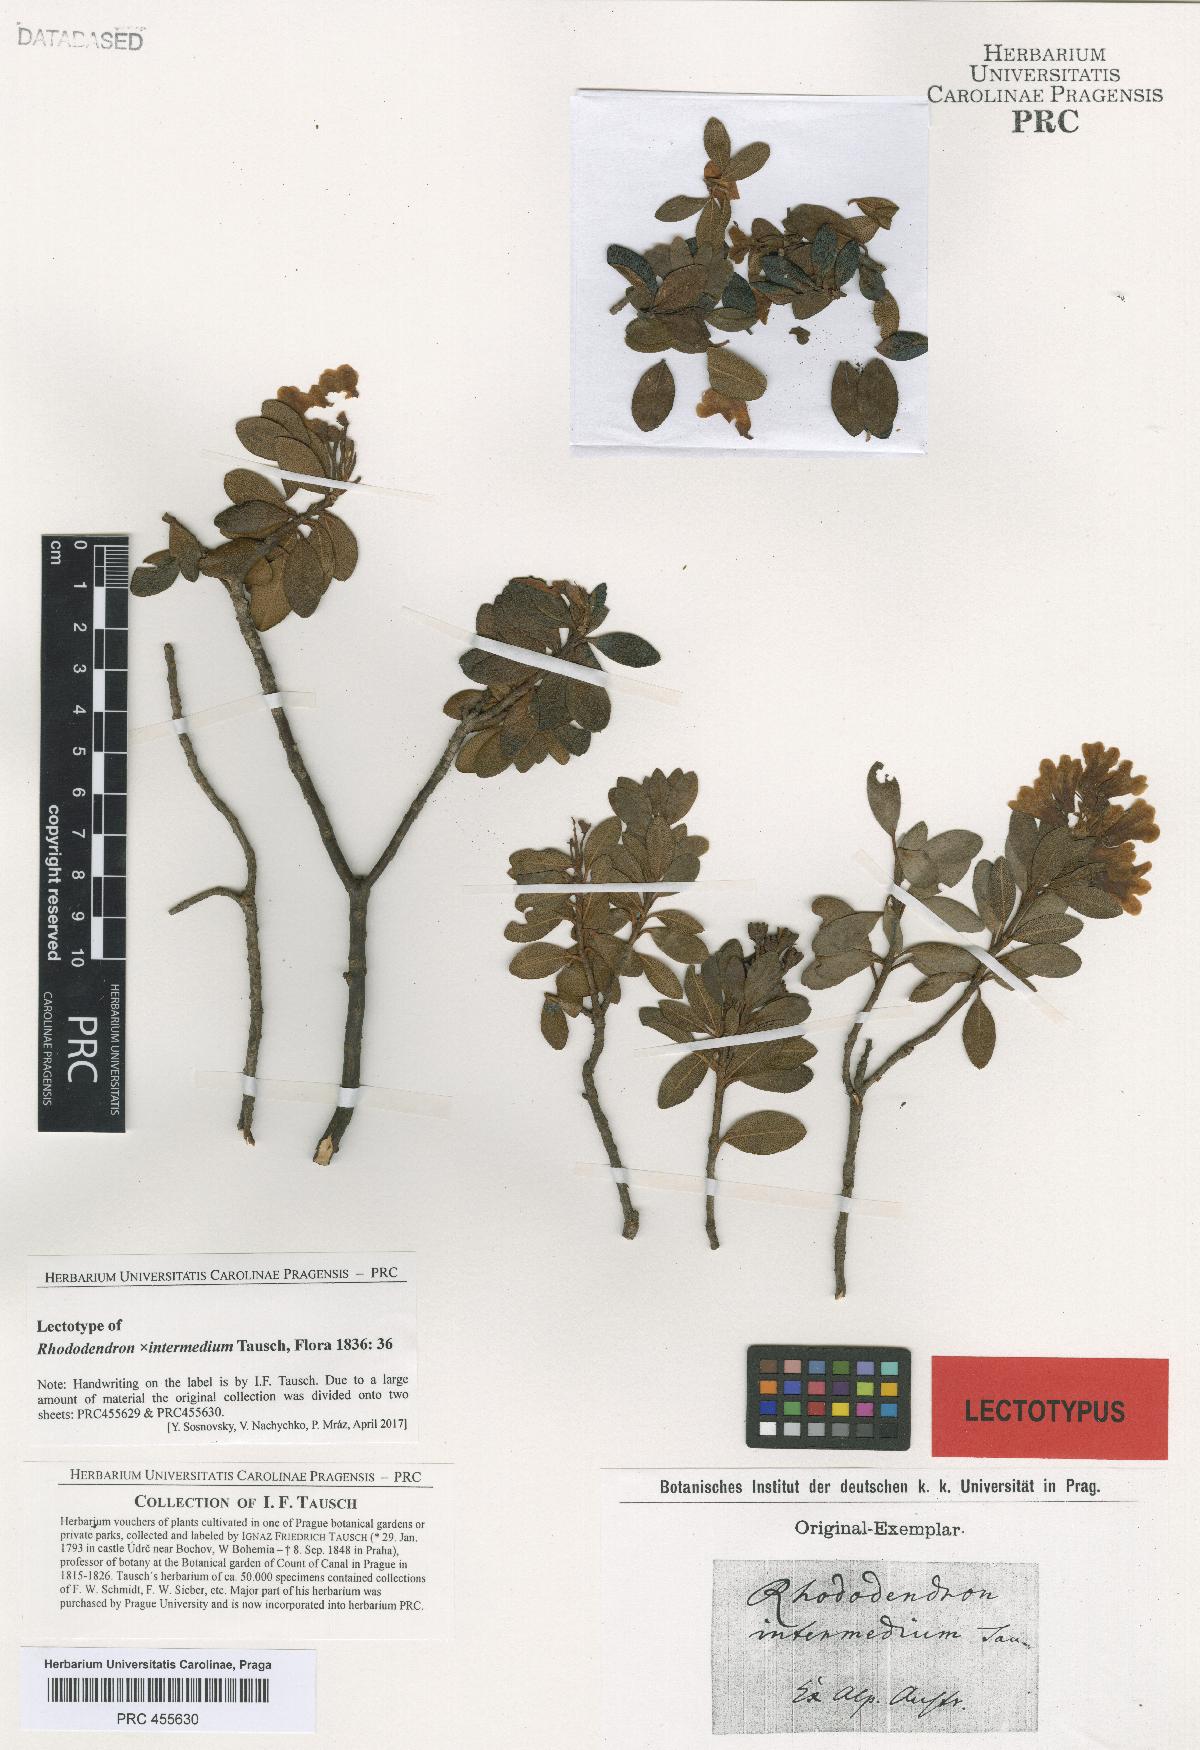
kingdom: Plantae
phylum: Tracheophyta
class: Magnoliopsida
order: Ericales
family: Ericaceae
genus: Rhododendron
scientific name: Rhododendron intermedium
